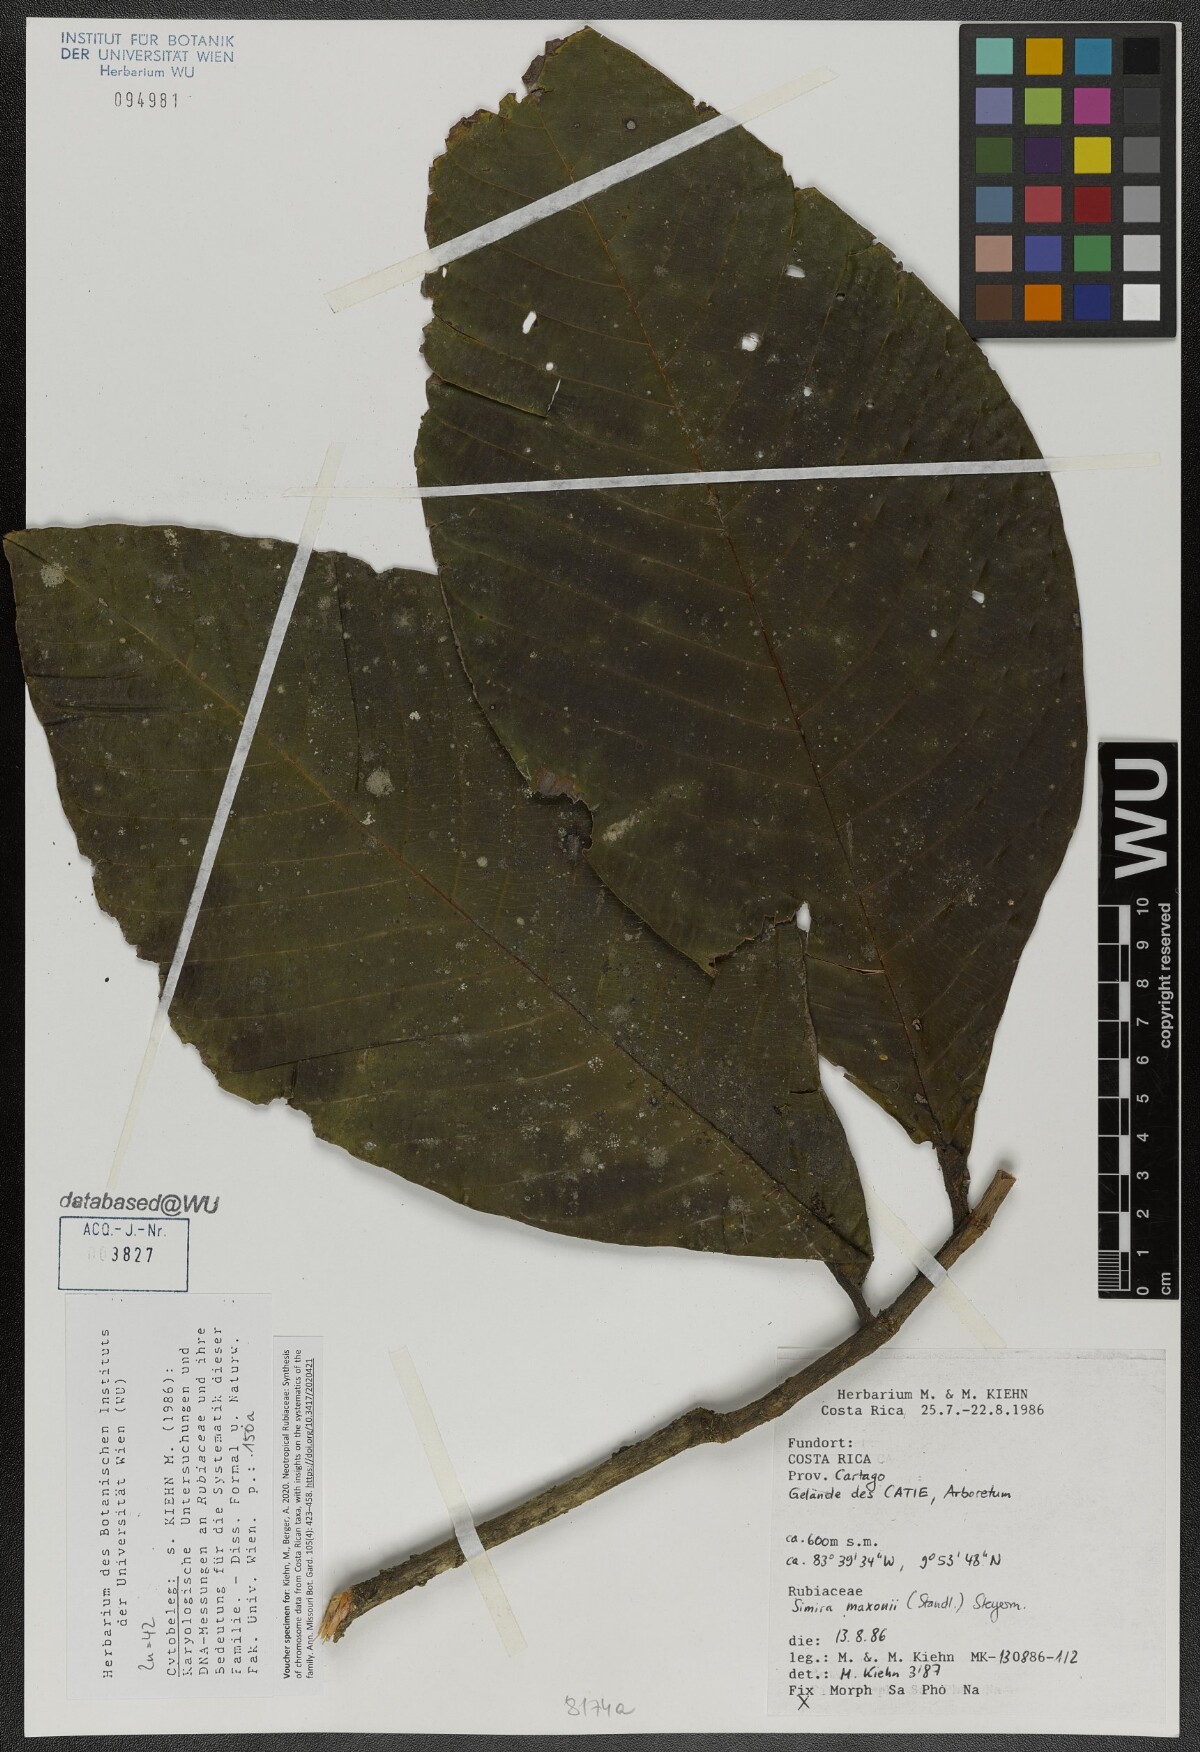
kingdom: Plantae
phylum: Tracheophyta
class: Magnoliopsida
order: Gentianales
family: Rubiaceae
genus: Simira
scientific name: Simira maxonii
